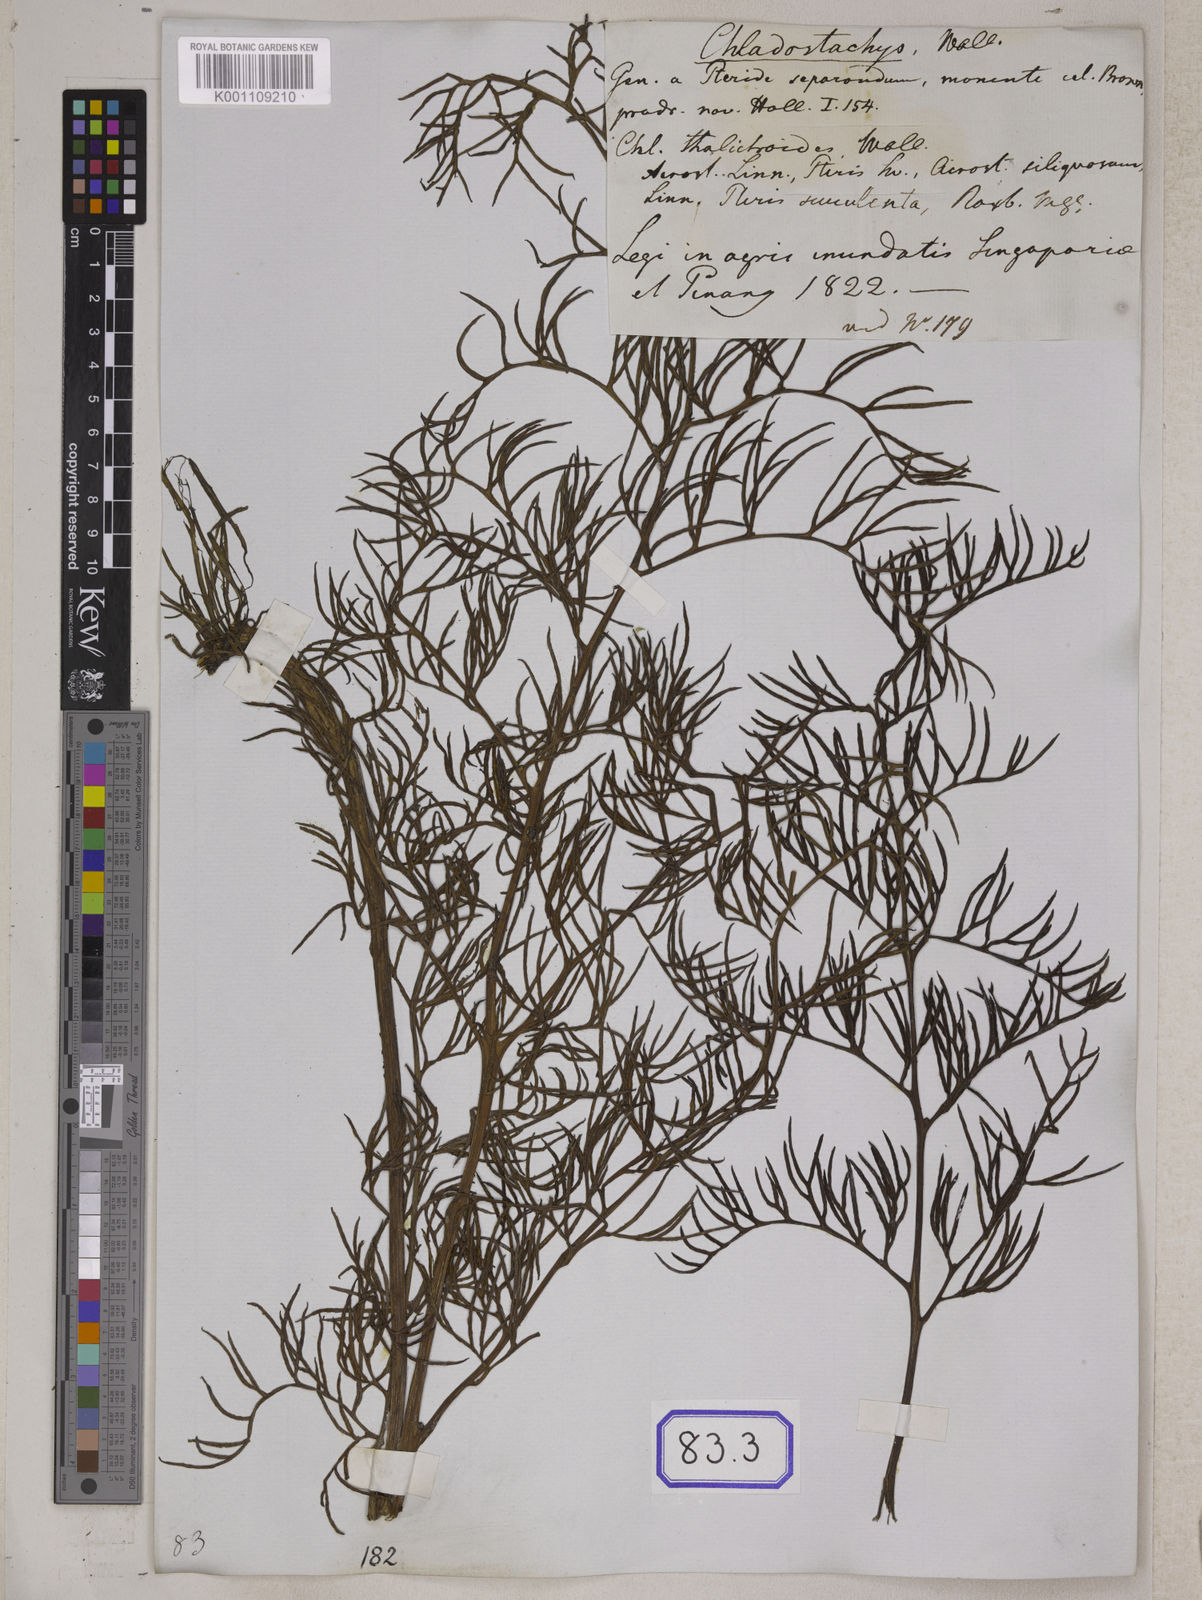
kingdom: Plantae
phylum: Tracheophyta
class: Polypodiopsida
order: Polypodiales
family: Pteridaceae
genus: Ceratopteris
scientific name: Ceratopteris thalictroides
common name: Water fern
